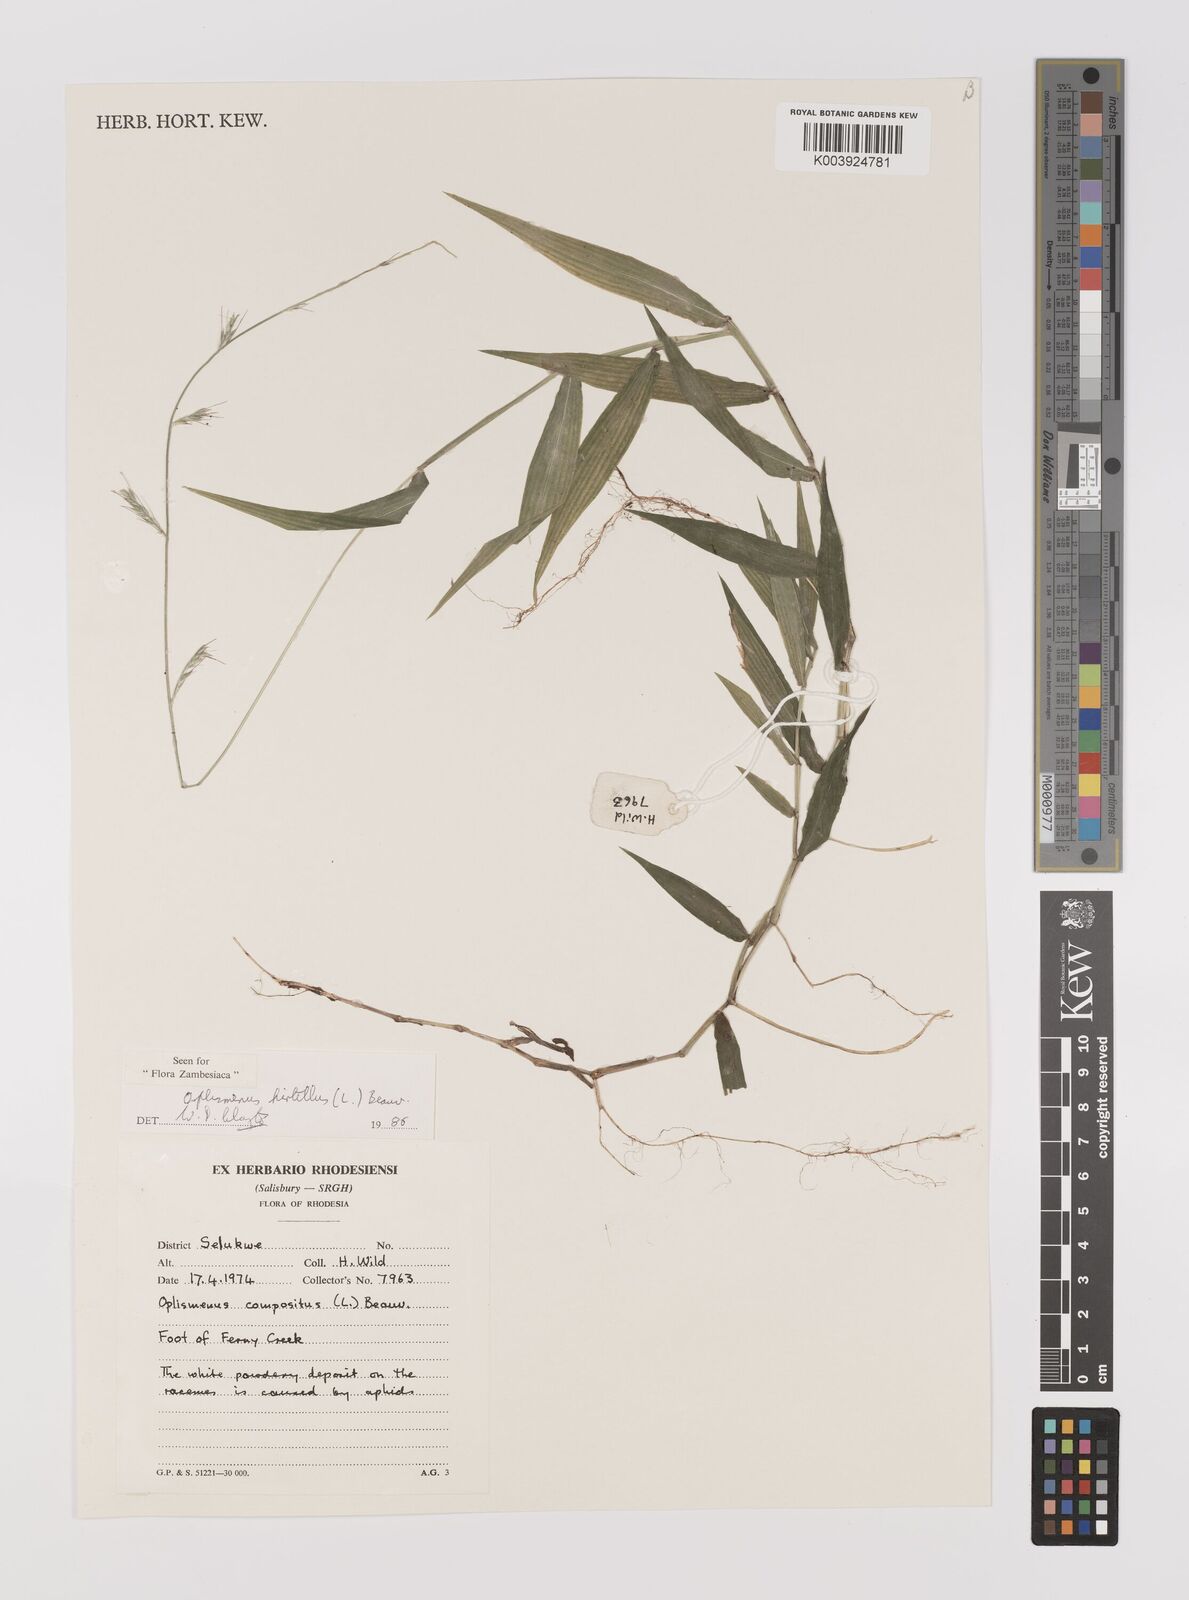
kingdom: Plantae
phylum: Tracheophyta
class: Liliopsida
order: Poales
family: Poaceae
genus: Oplismenus
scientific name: Oplismenus hirtellus
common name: Basketgrass
